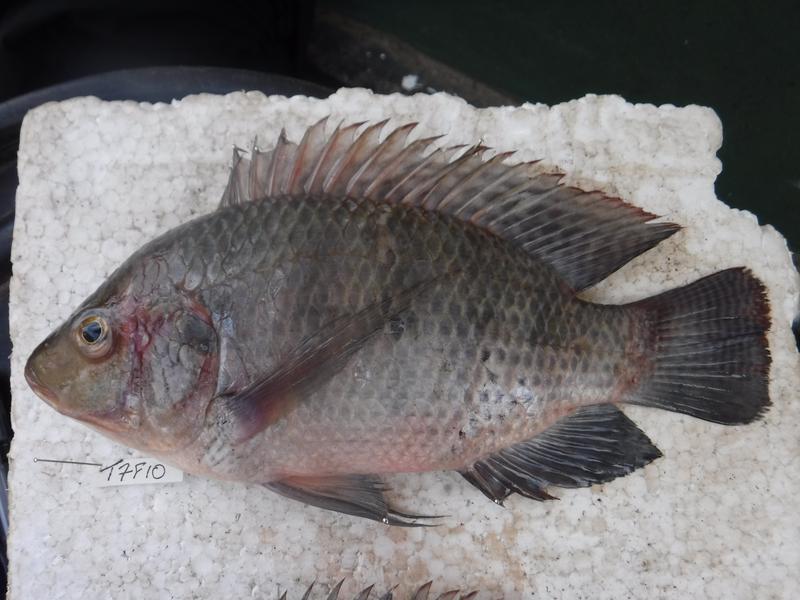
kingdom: Animalia
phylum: Chordata
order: Perciformes
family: Cichlidae
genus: Oreochromis
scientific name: Oreochromis urolepis
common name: Wami tilapia
